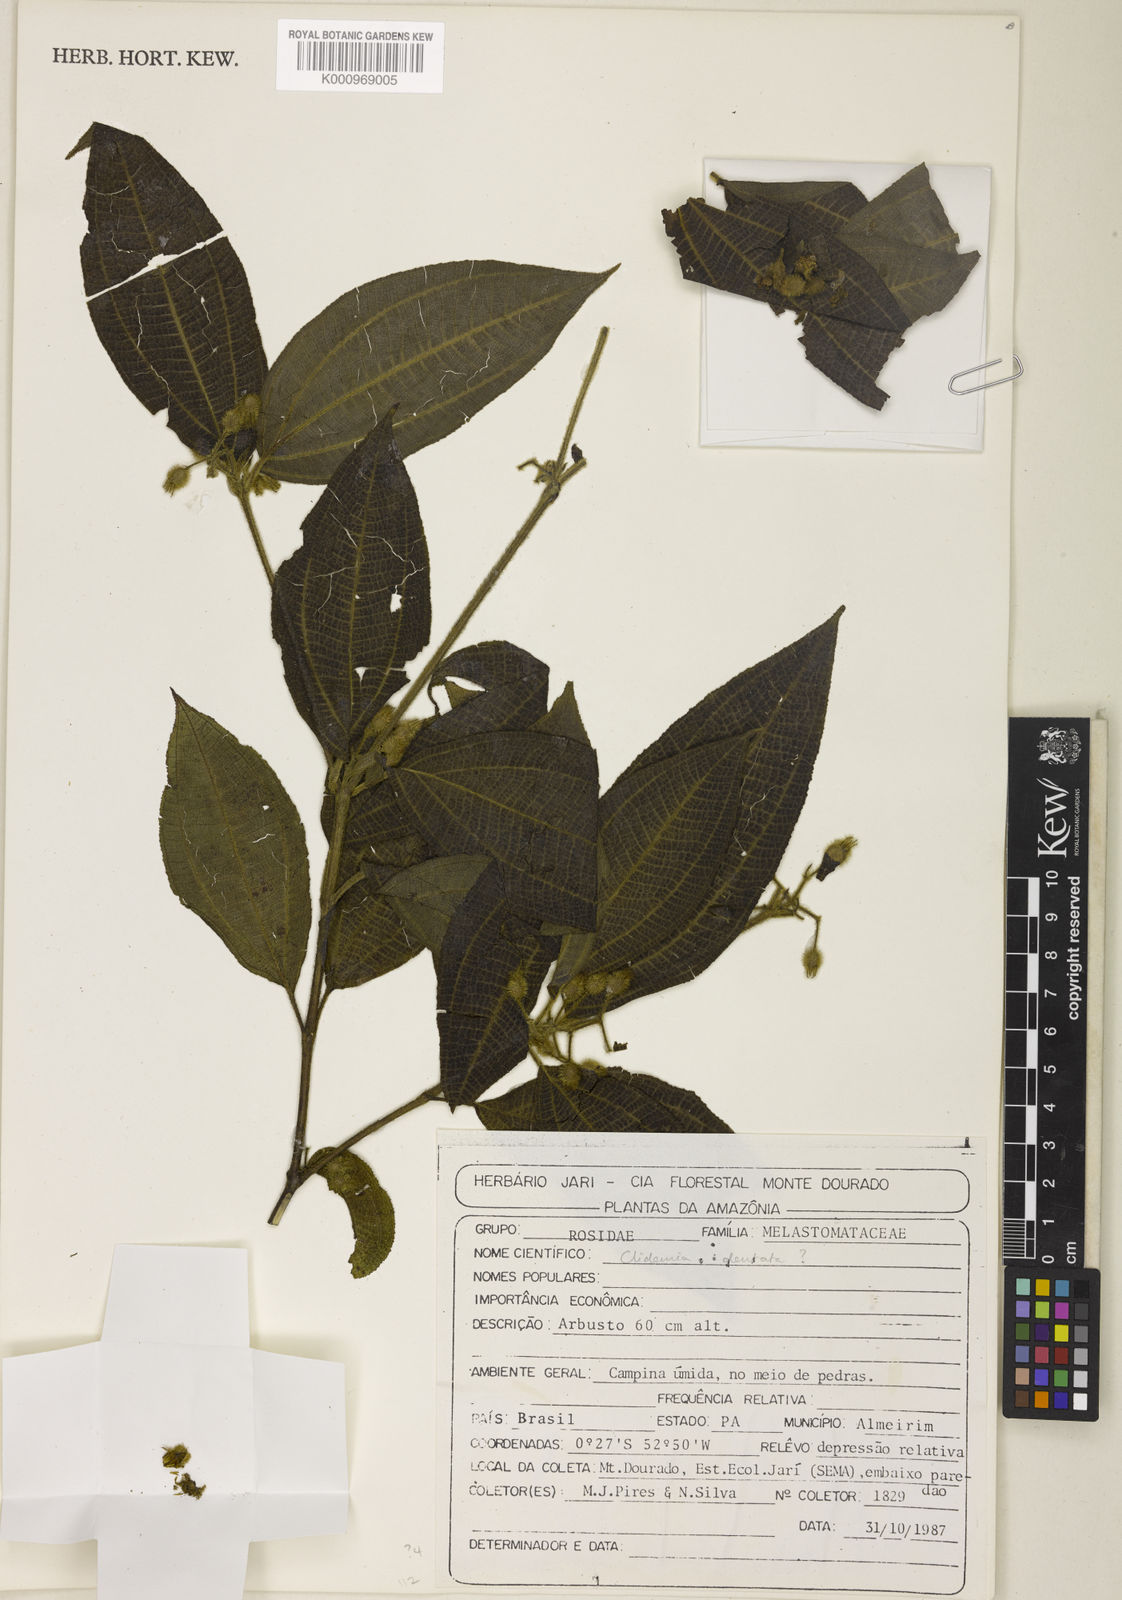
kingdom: Plantae
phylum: Tracheophyta
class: Magnoliopsida
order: Myrtales
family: Melastomataceae
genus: Miconia
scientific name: Miconia dentata
